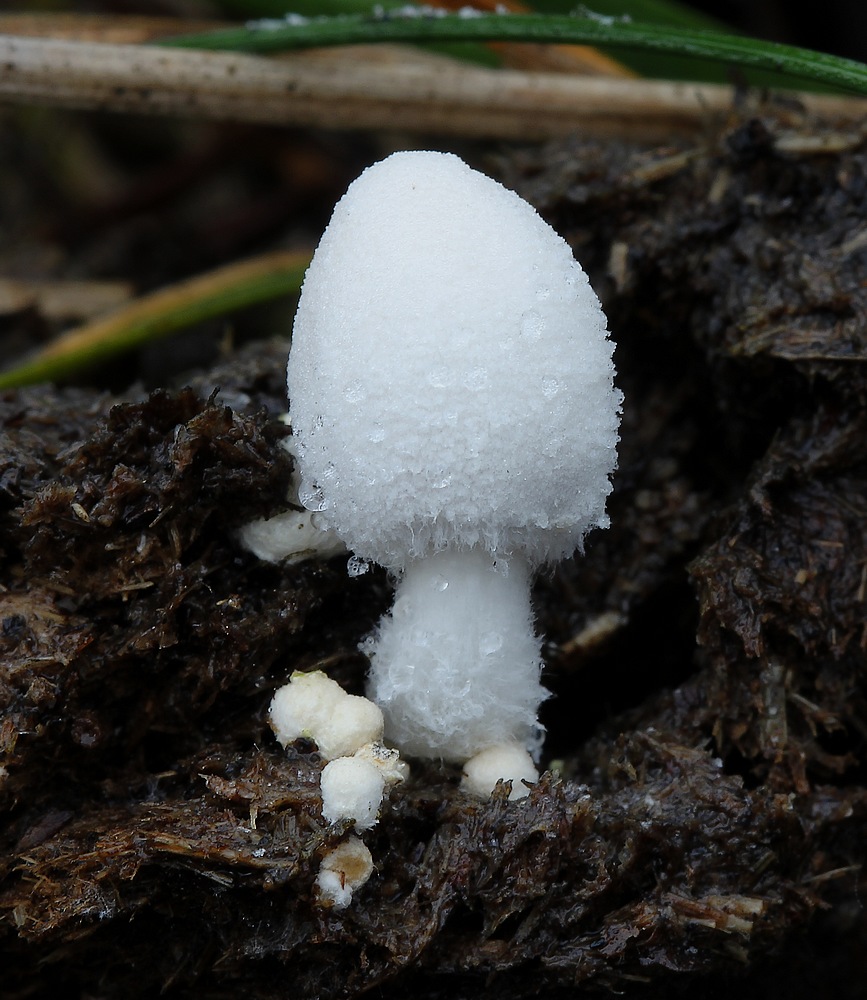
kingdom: Fungi
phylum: Basidiomycota
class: Agaricomycetes
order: Agaricales
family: Psathyrellaceae
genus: Coprinopsis
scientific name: Coprinopsis nivea
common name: snehvid blækhat
